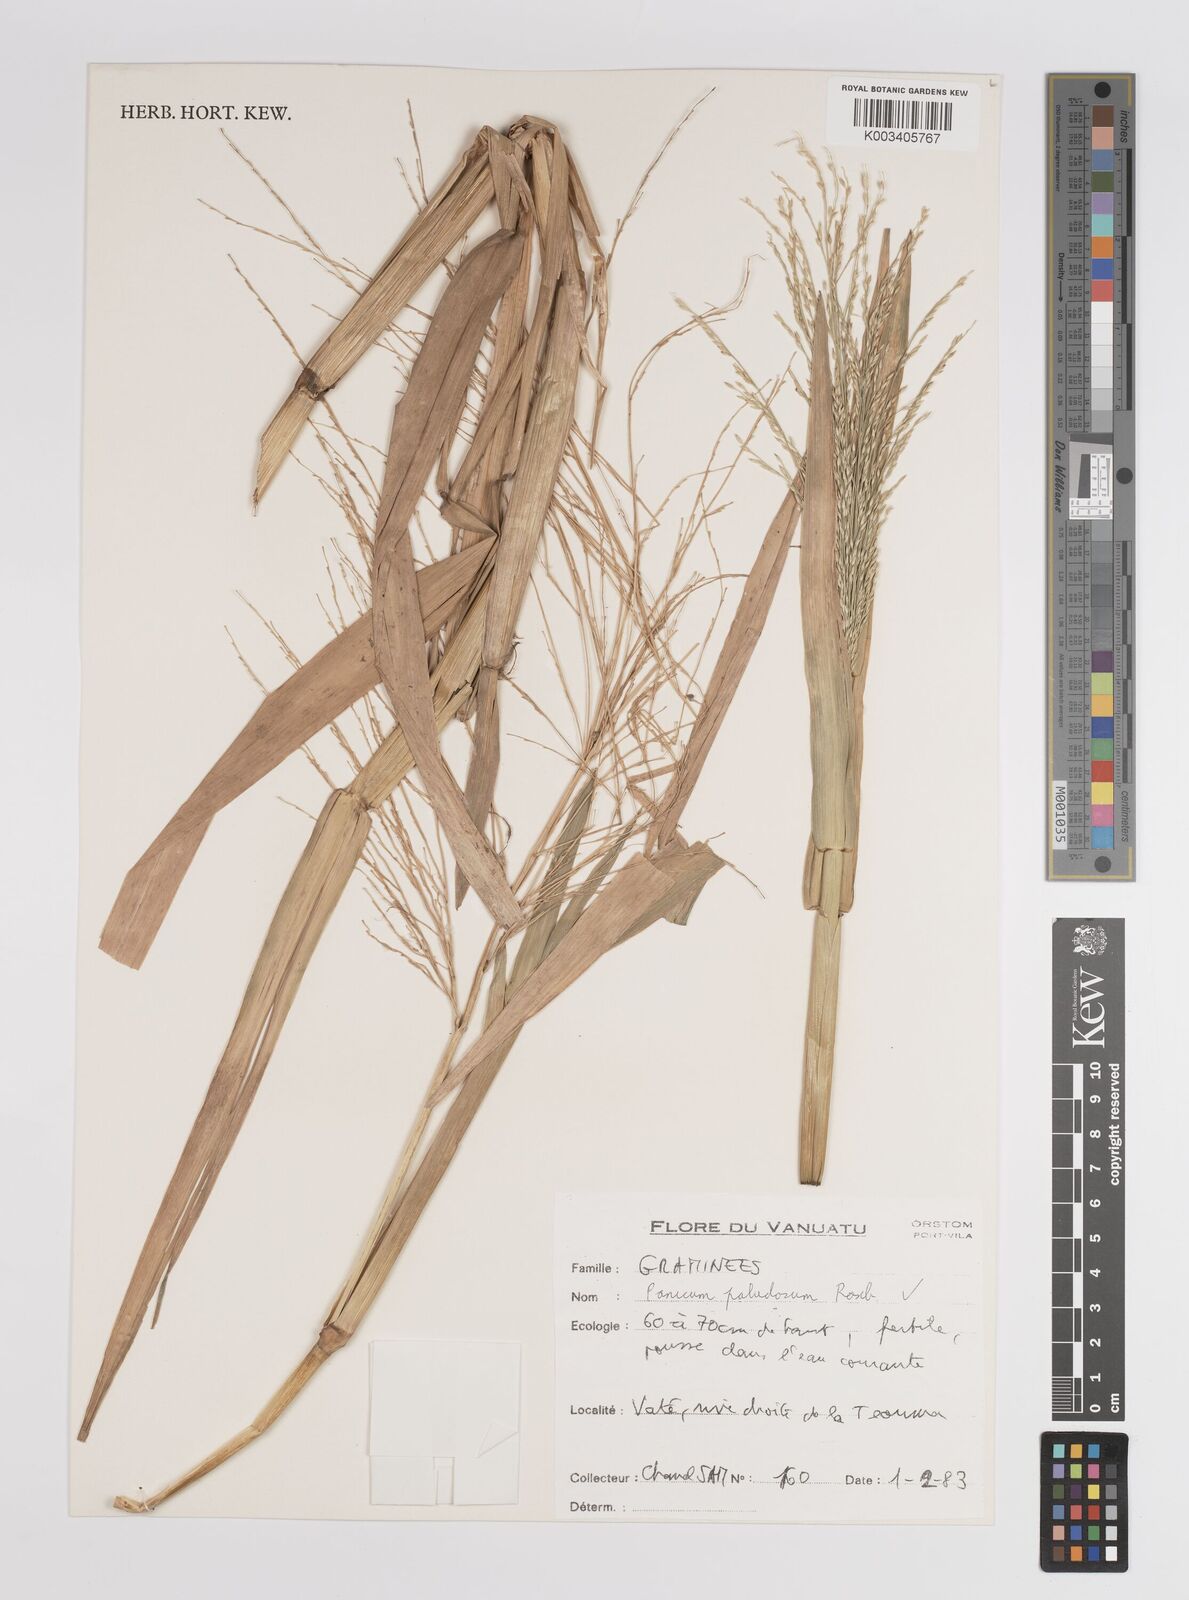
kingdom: Plantae
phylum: Tracheophyta
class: Liliopsida
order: Poales
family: Poaceae
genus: Louisiella
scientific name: Louisiella paludosa
